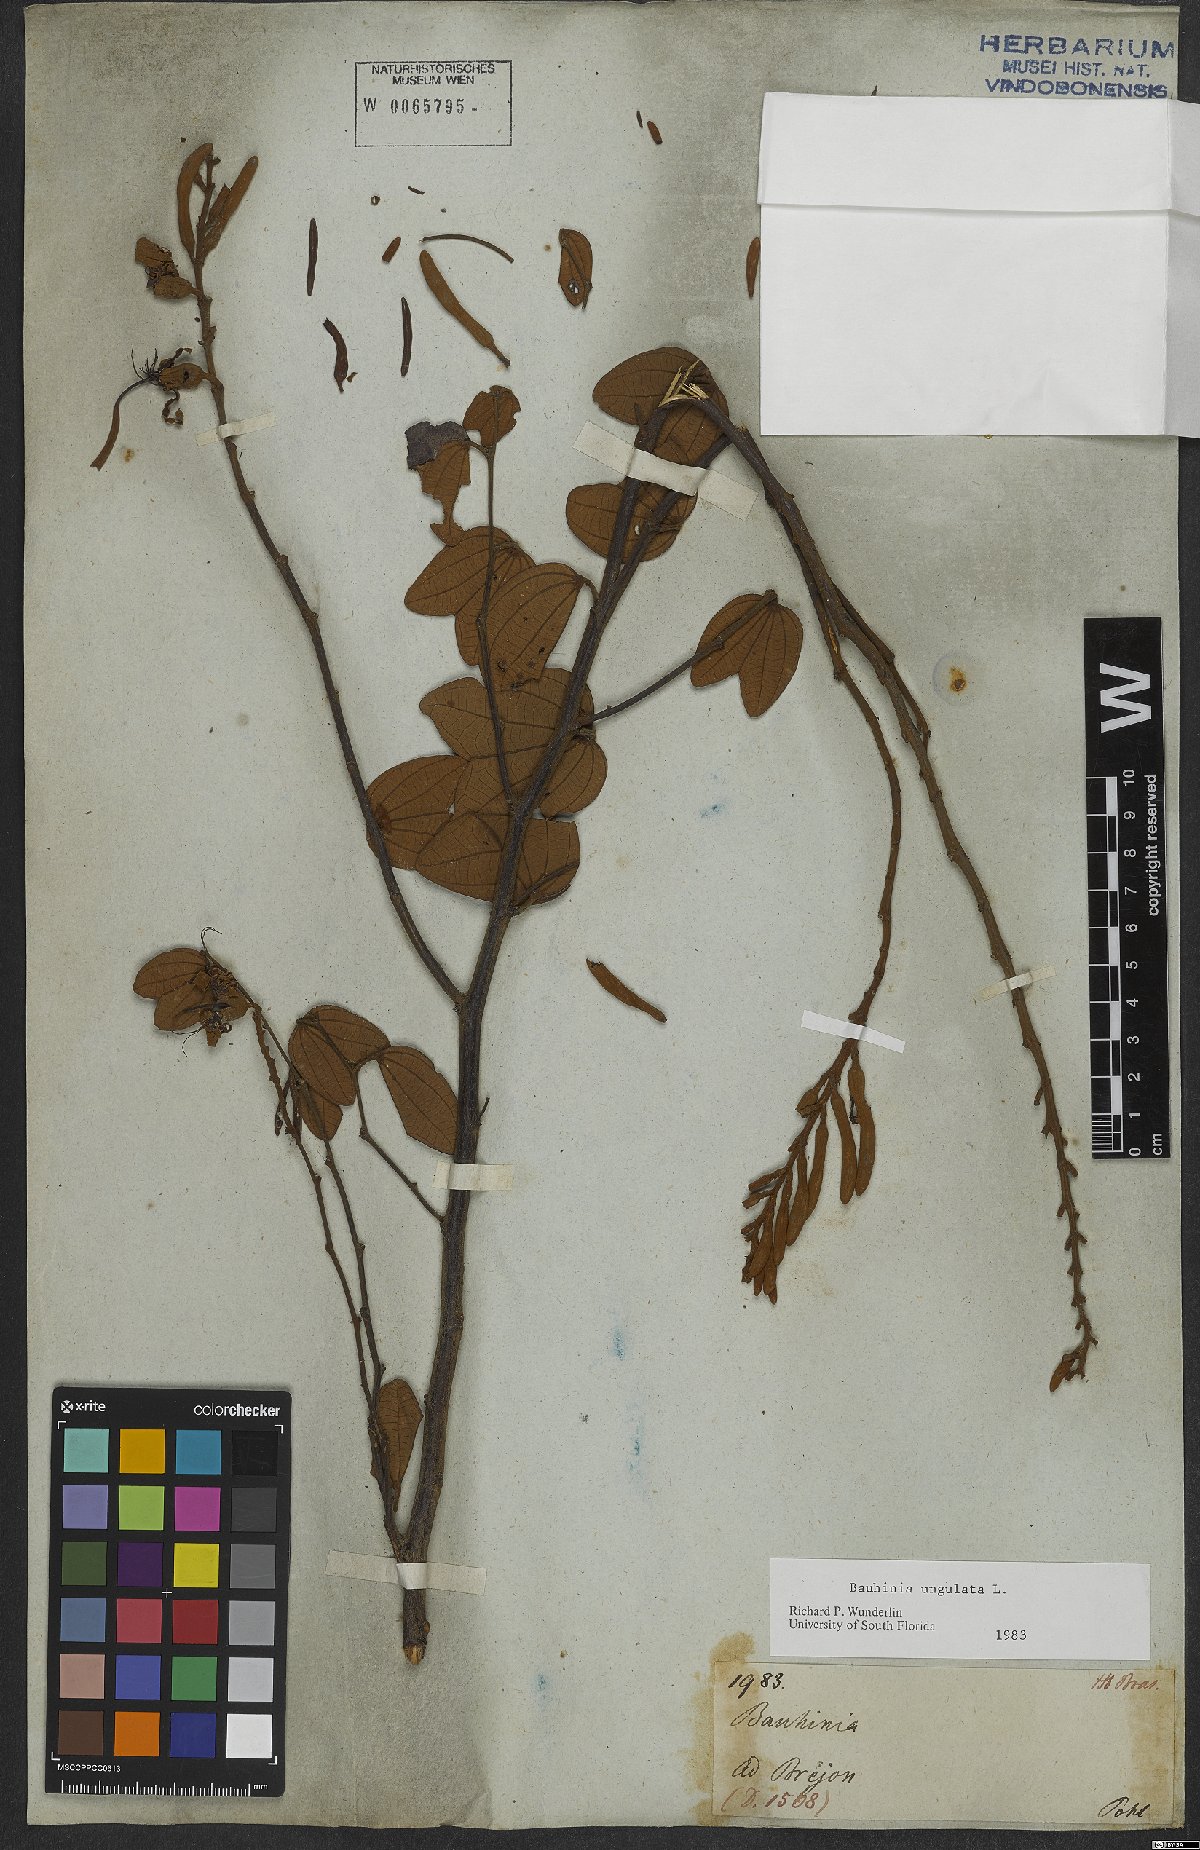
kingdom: Plantae
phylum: Tracheophyta
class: Magnoliopsida
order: Fabales
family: Fabaceae
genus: Bauhinia
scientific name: Bauhinia ungulata
